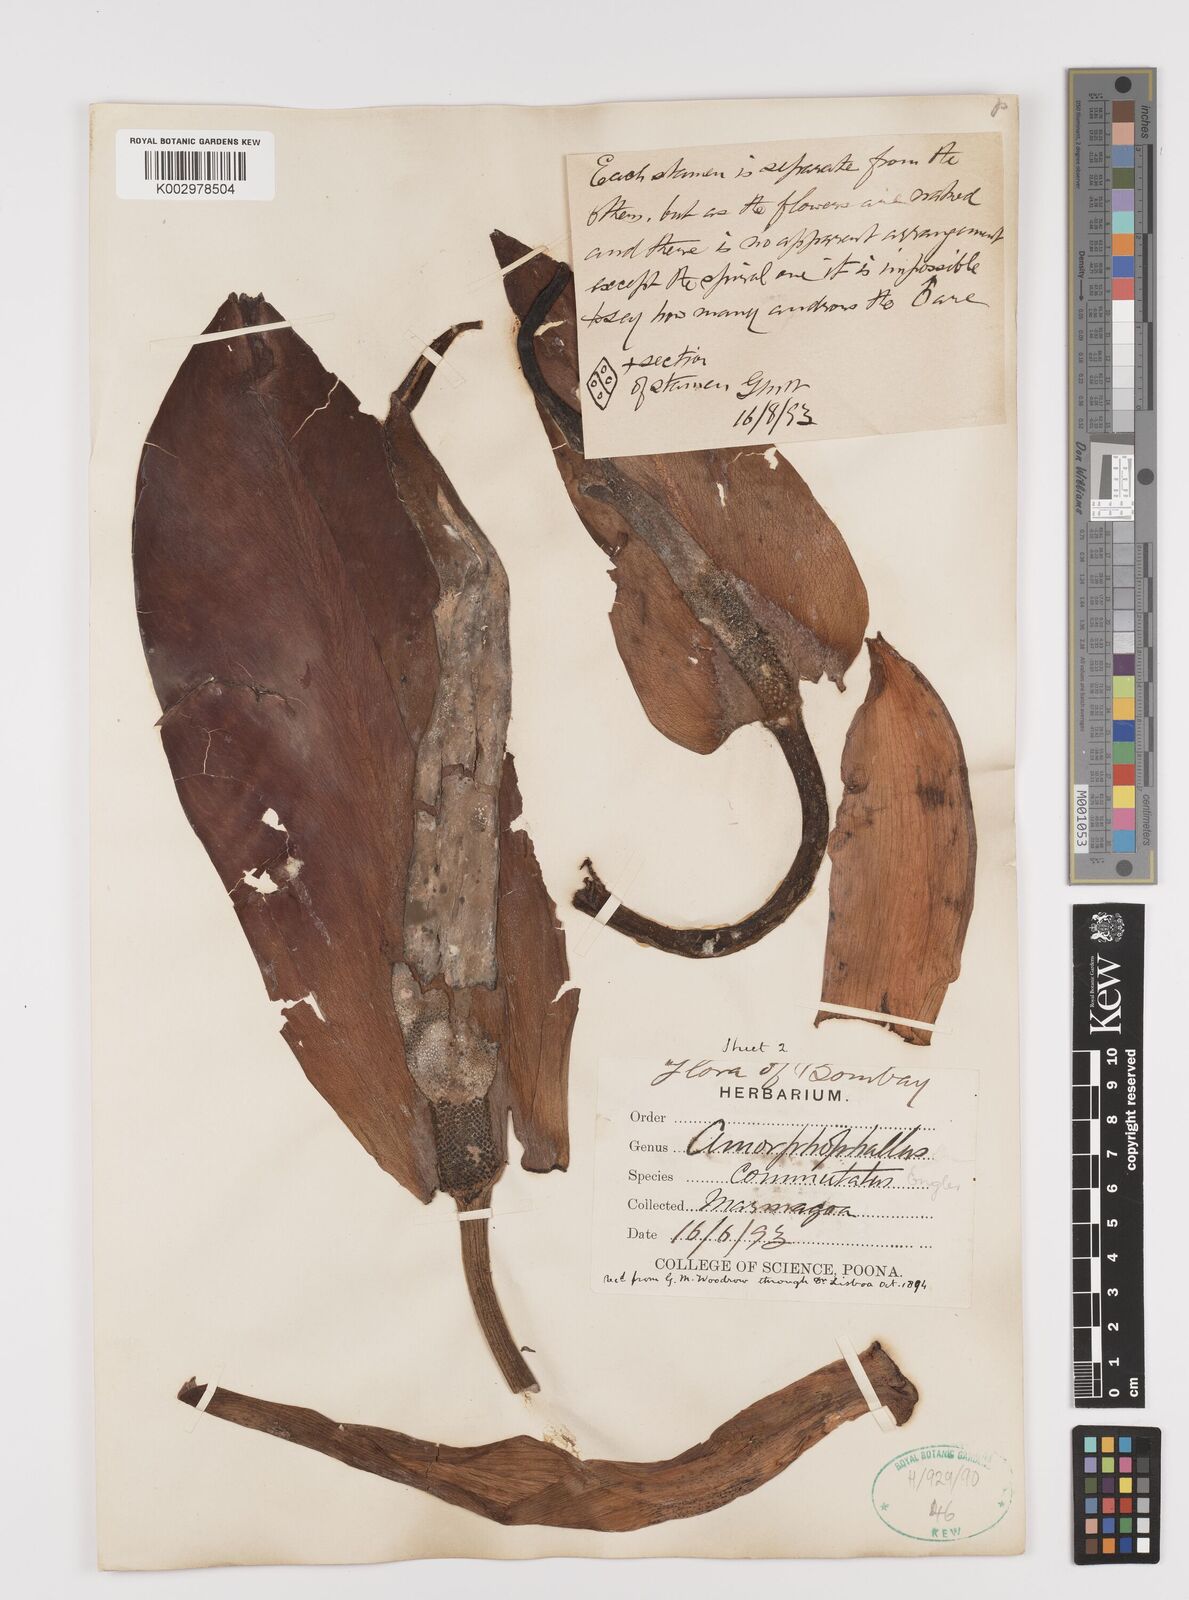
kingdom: Plantae
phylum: Tracheophyta
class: Liliopsida
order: Alismatales
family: Araceae
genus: Amorphophallus
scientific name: Amorphophallus commutatus
